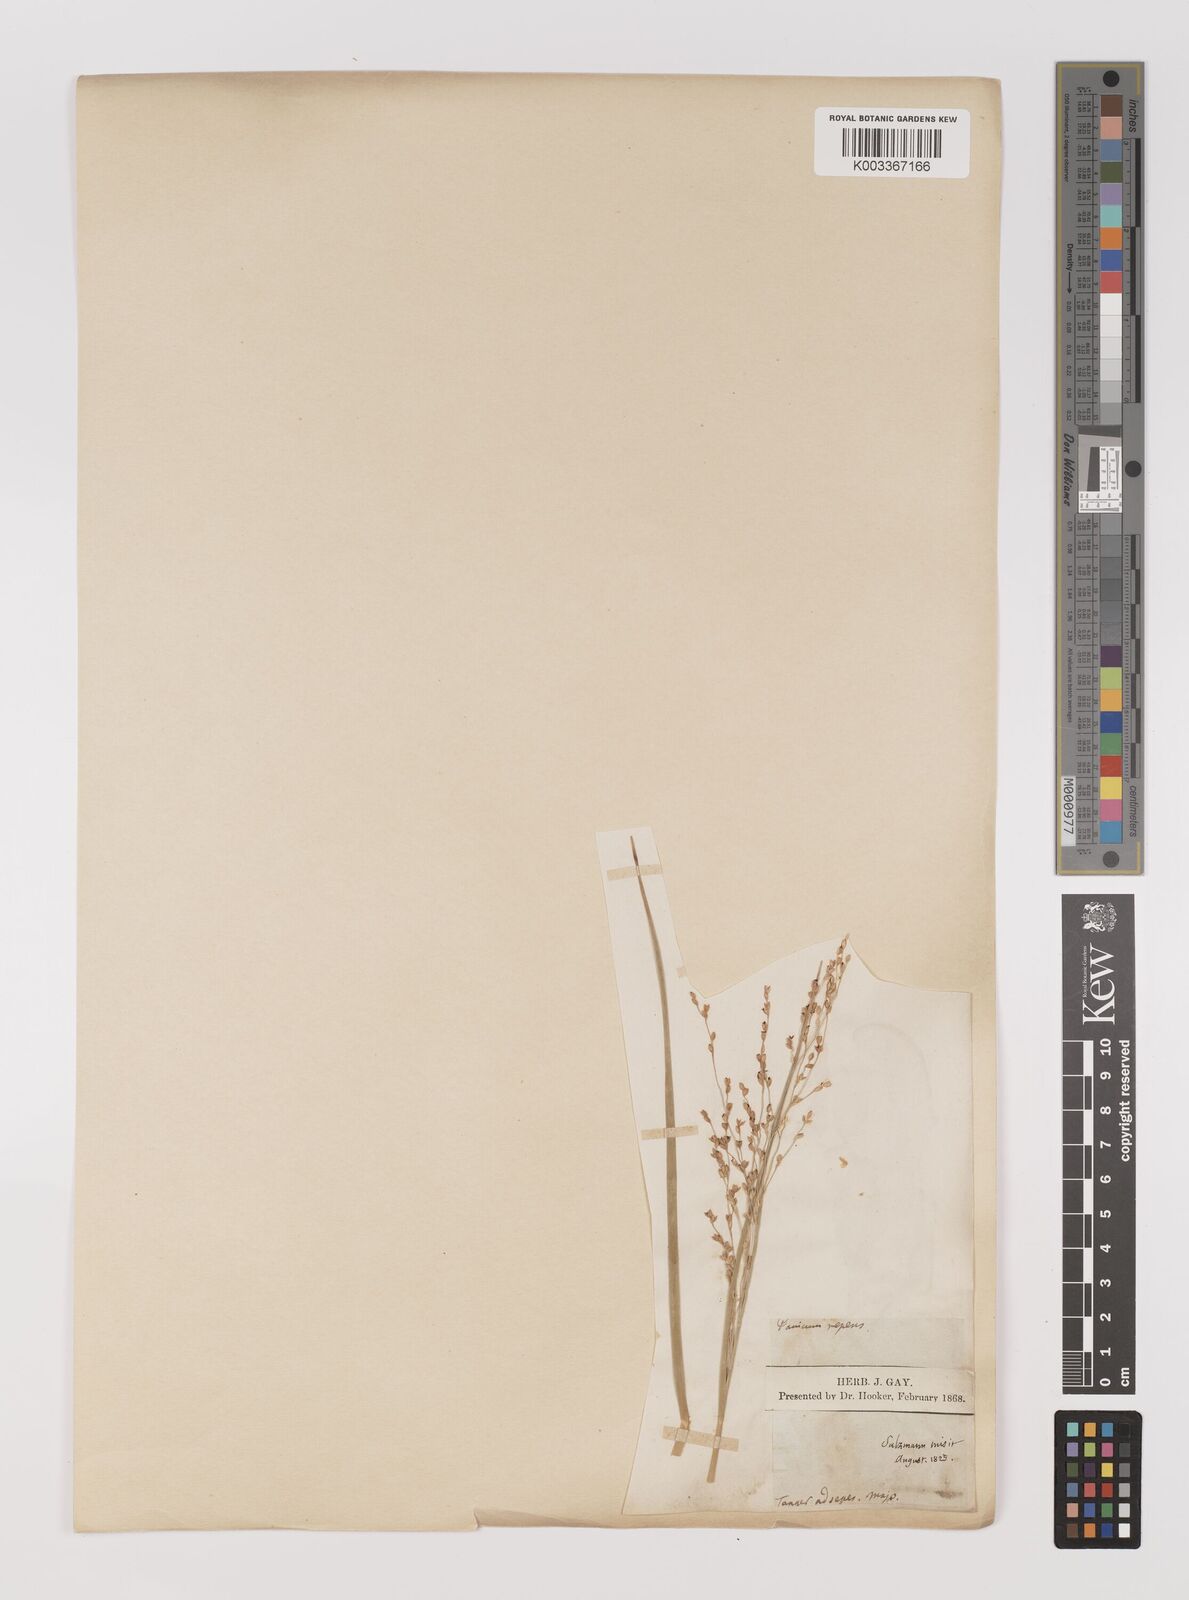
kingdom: Plantae
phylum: Tracheophyta
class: Liliopsida
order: Poales
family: Poaceae
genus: Panicum
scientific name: Panicum repens
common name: Torpedo grass
